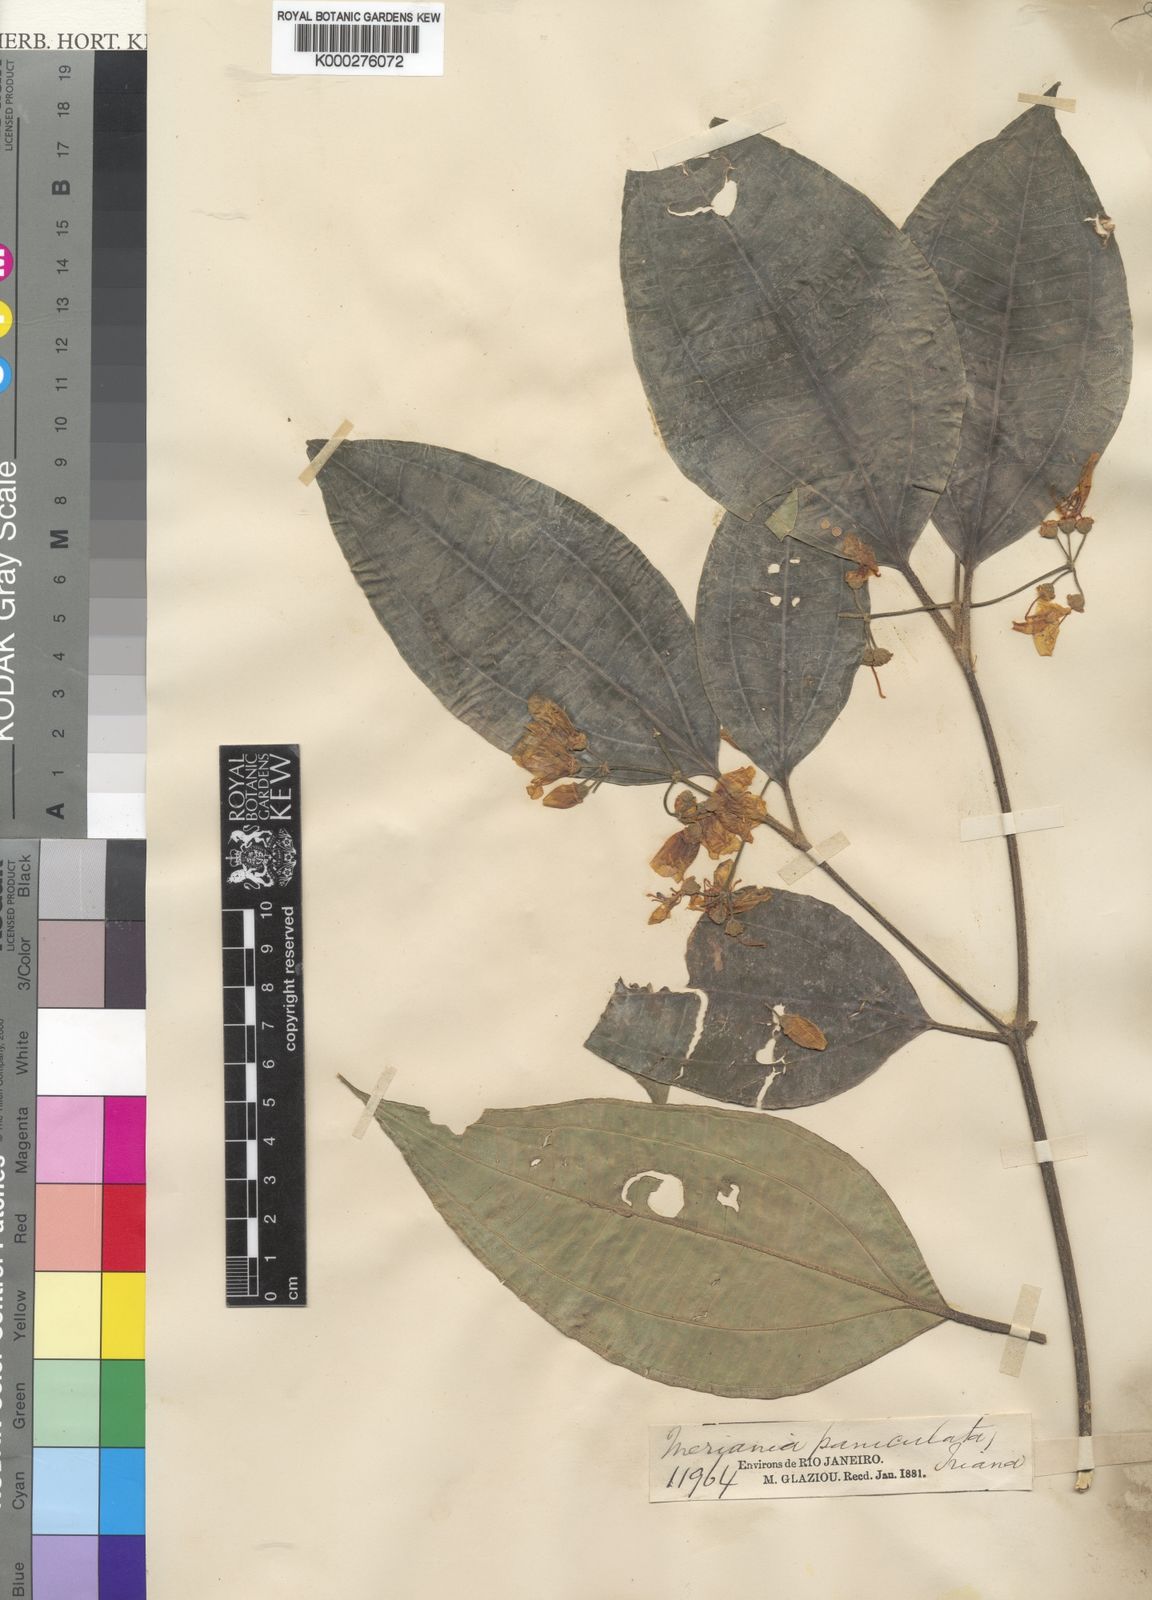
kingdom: Plantae
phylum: Tracheophyta
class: Magnoliopsida
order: Myrtales
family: Melastomataceae
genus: Meriania
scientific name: Meriania paniculata
